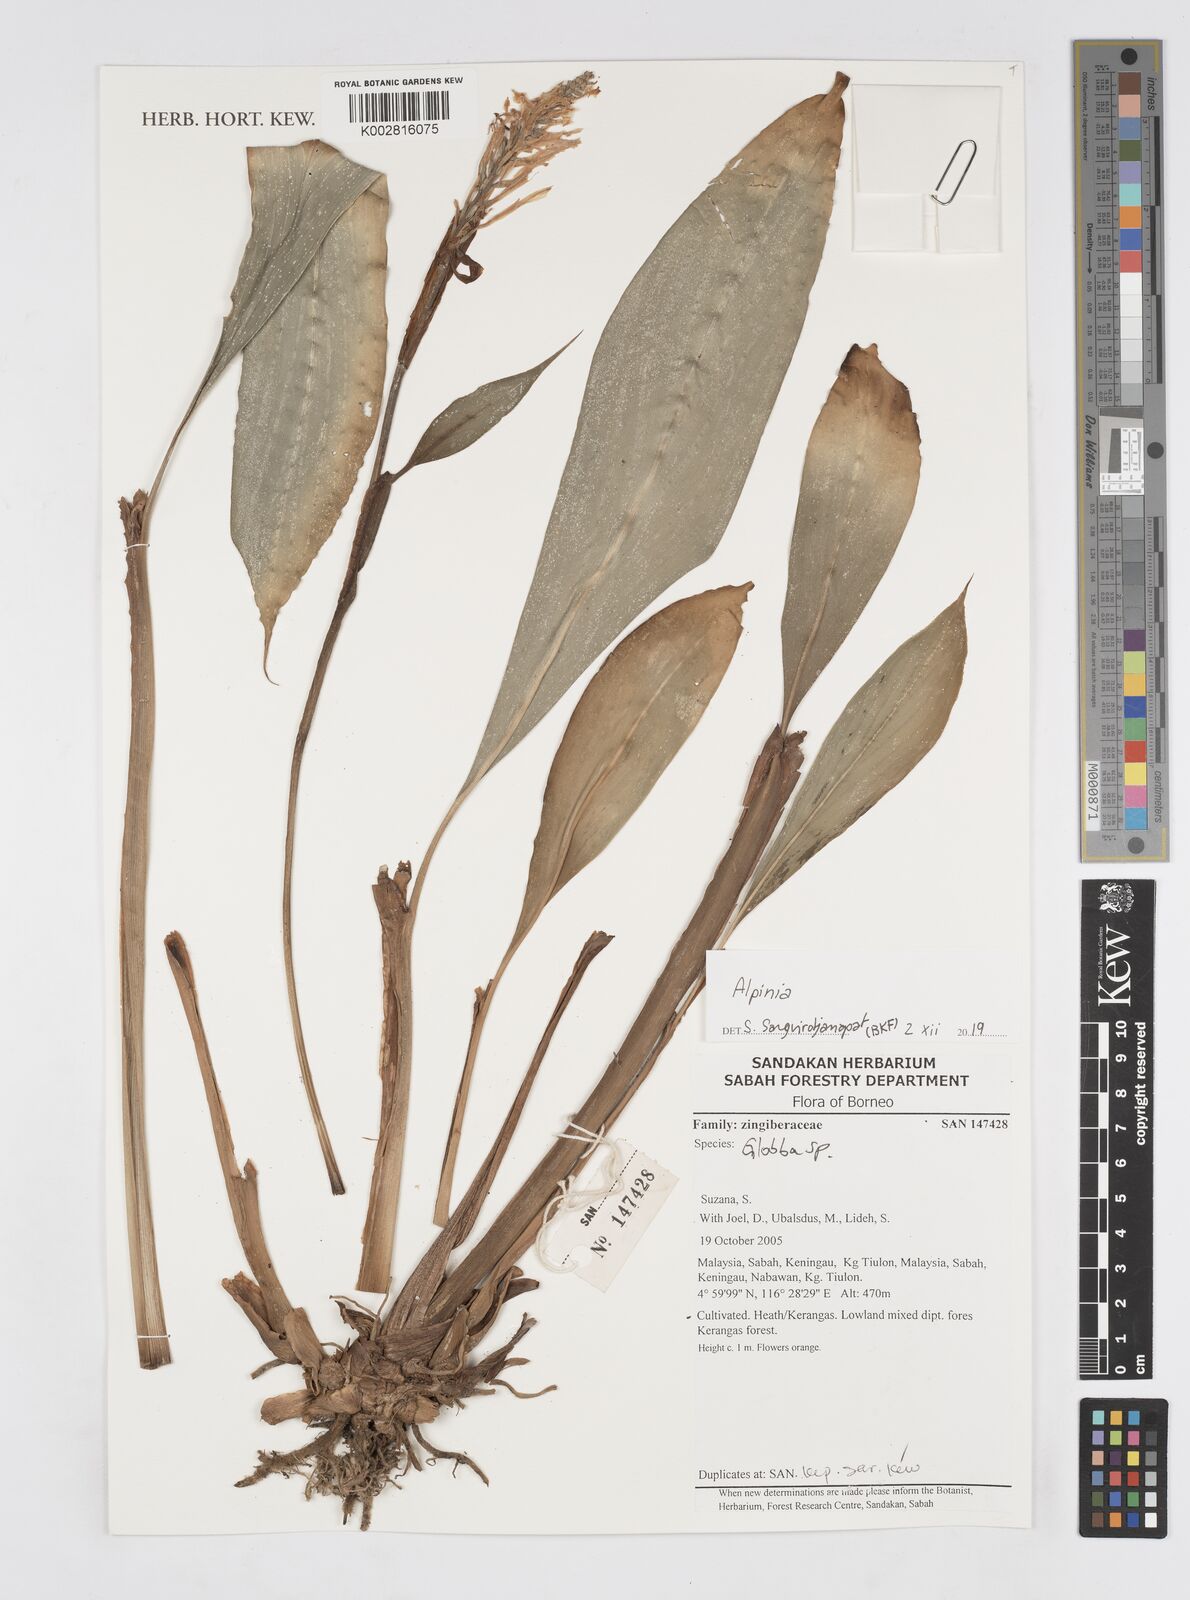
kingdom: Plantae
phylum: Tracheophyta
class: Liliopsida
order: Zingiberales
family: Zingiberaceae
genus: Alpinia
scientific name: Alpinia
